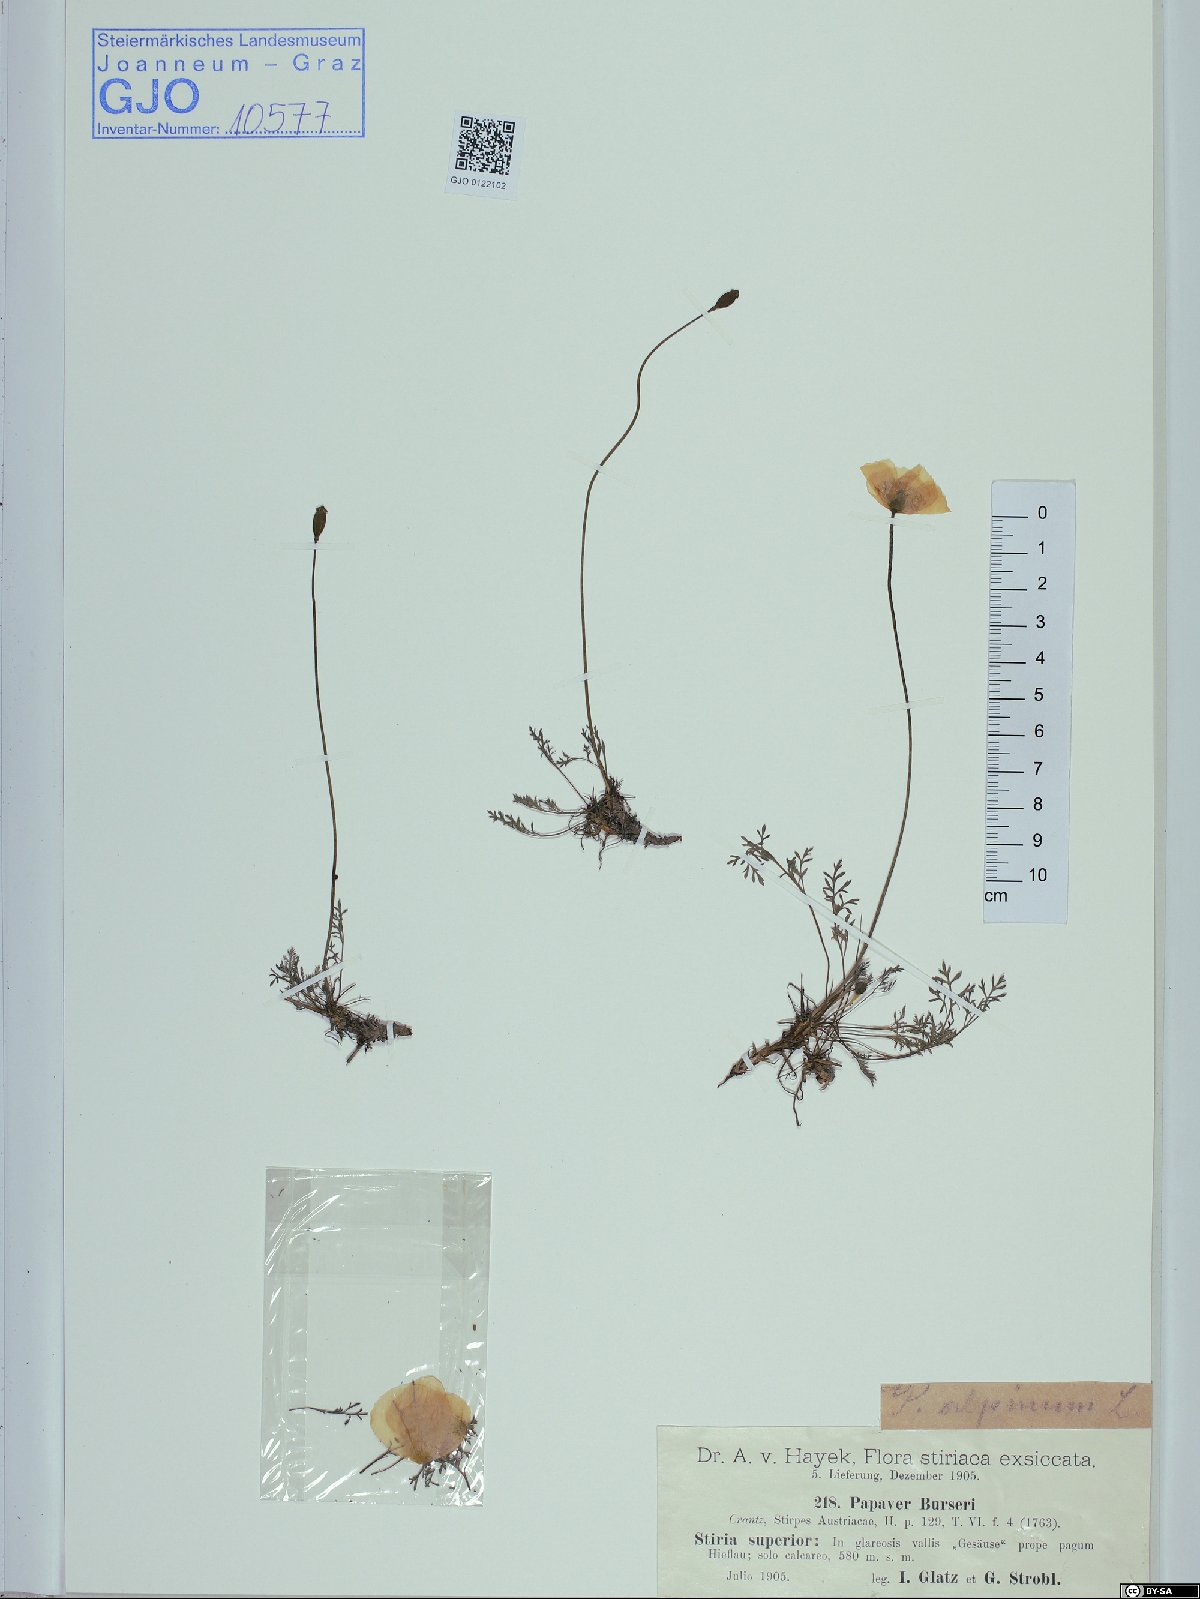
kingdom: Plantae
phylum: Tracheophyta
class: Magnoliopsida
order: Ranunculales
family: Papaveraceae
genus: Papaver
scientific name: Papaver alpinum
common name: Austrian poppy
